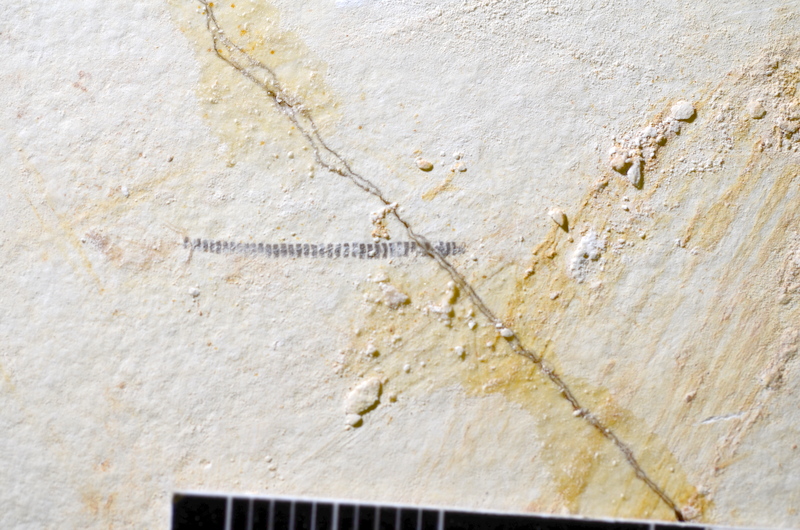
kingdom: Animalia
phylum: Chordata
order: Salmoniformes
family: Orthogonikleithridae
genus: Orthogonikleithrus
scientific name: Orthogonikleithrus hoelli
